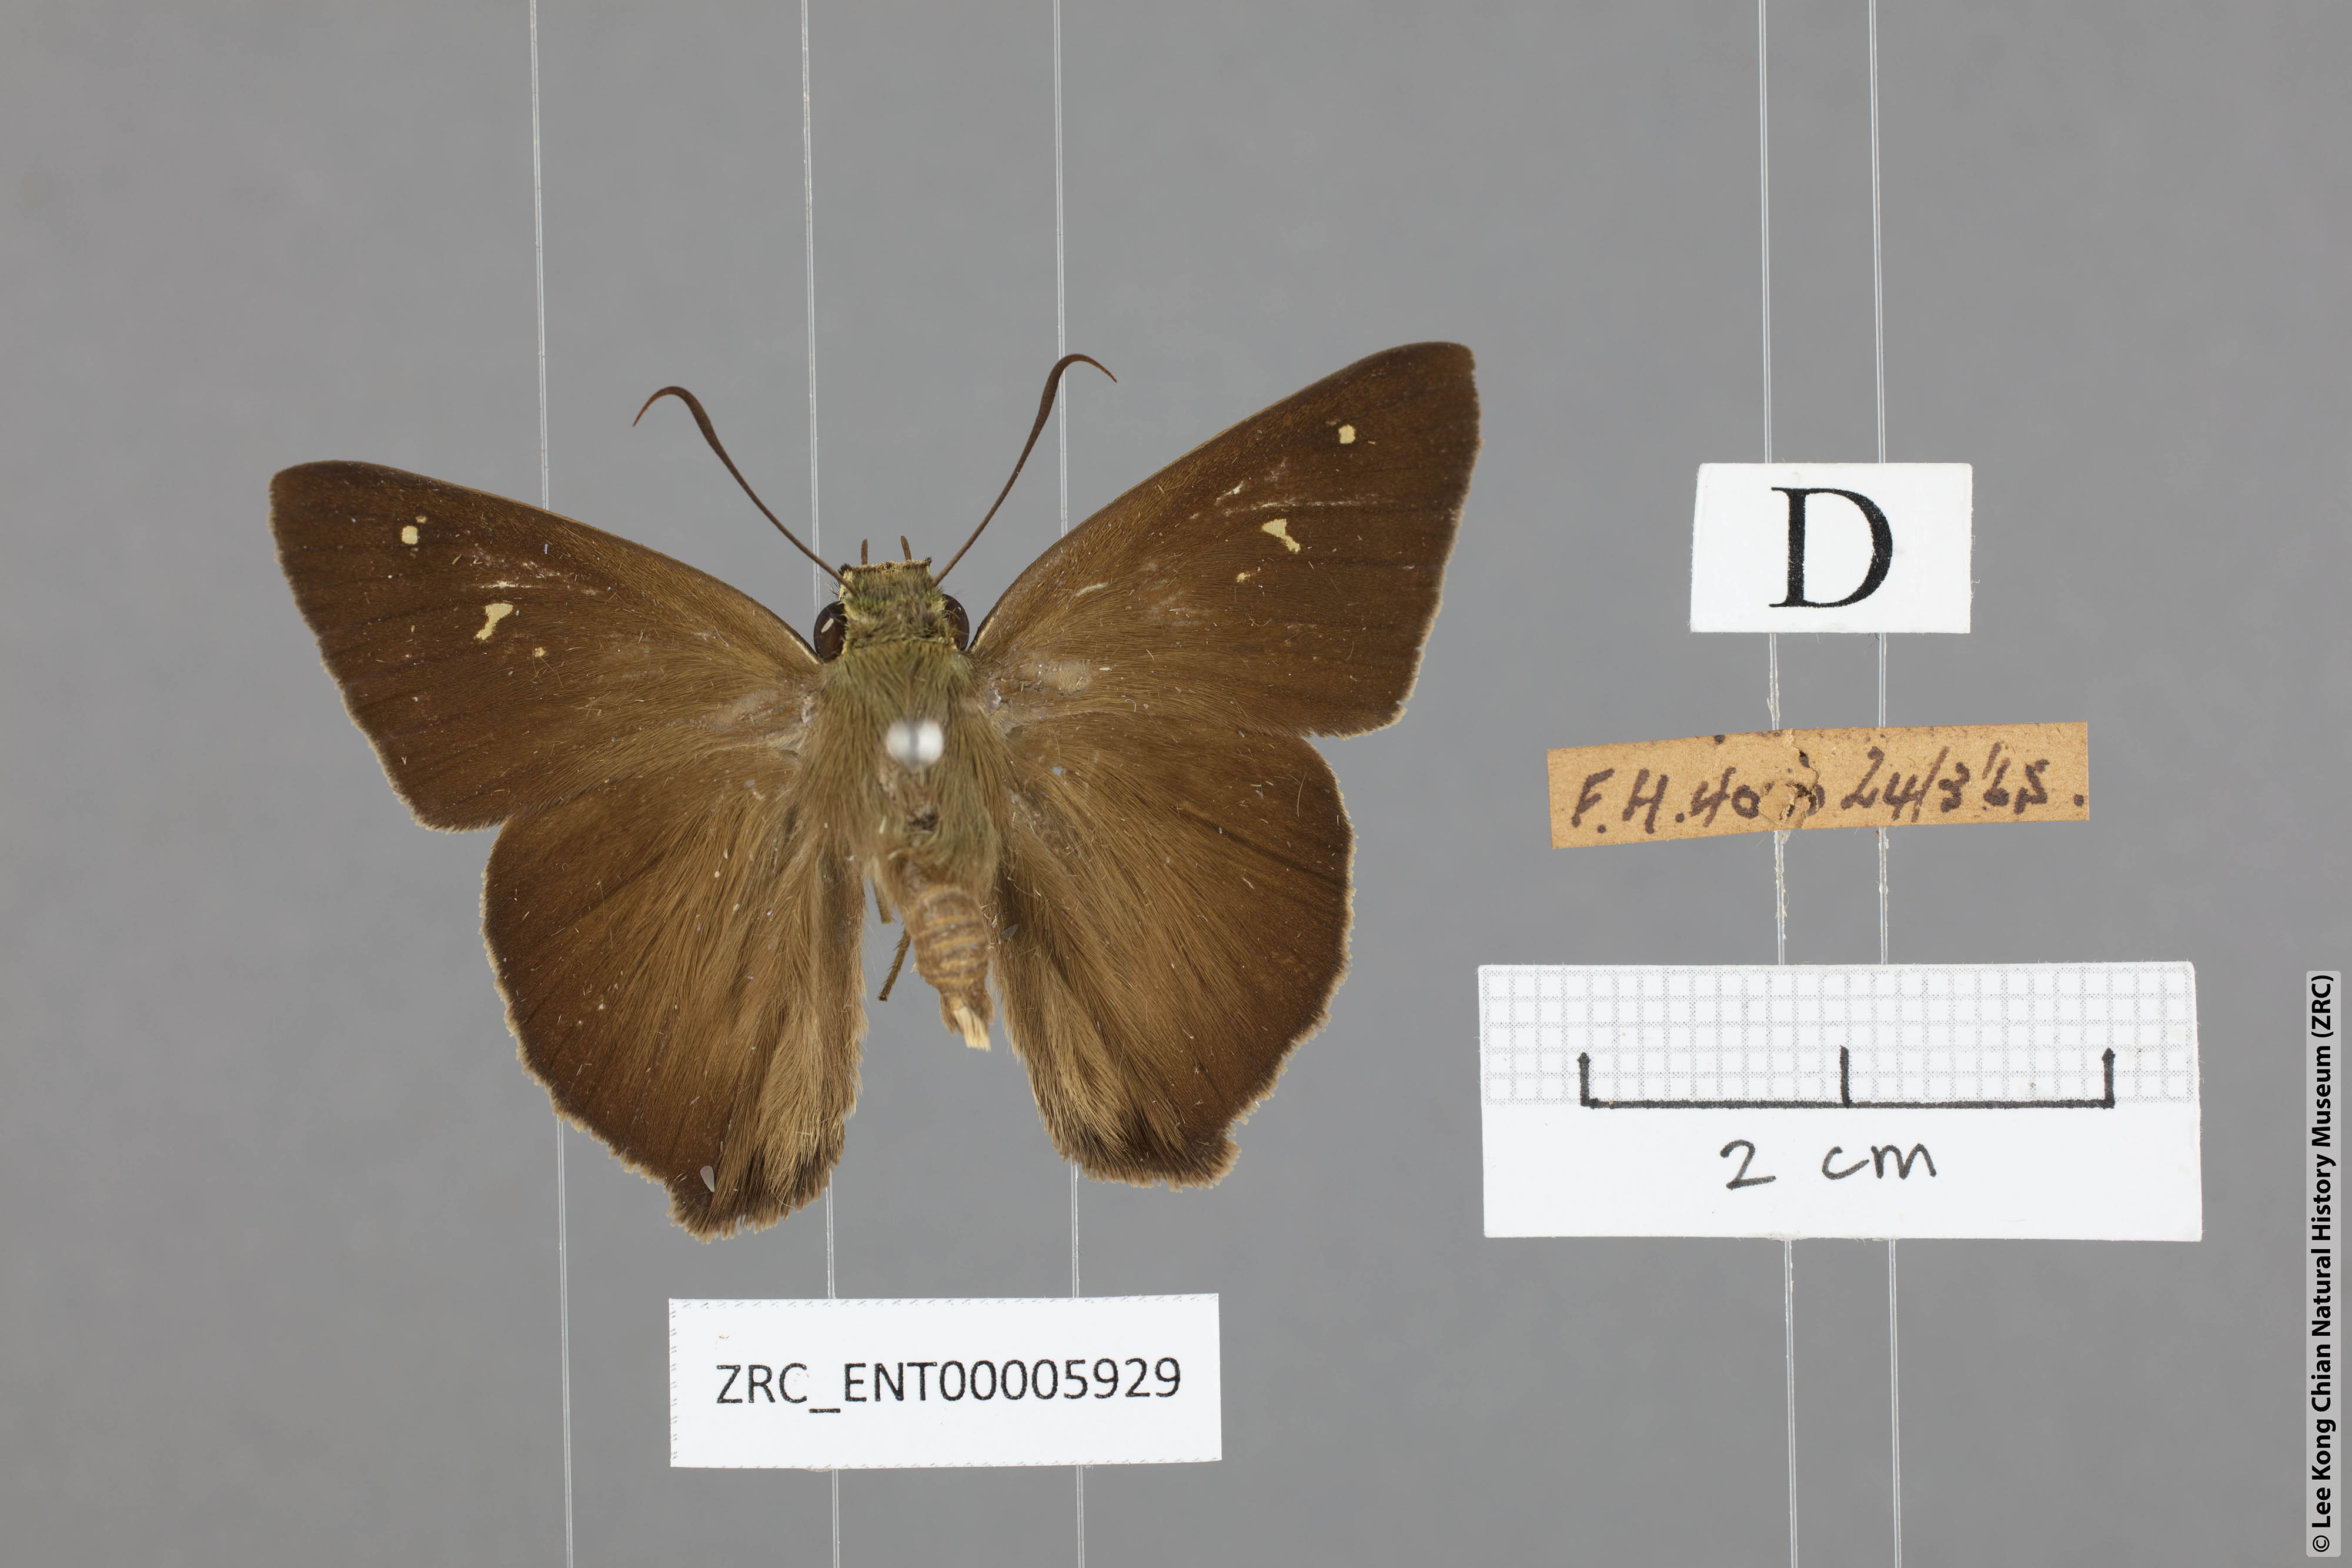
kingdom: Animalia
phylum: Arthropoda
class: Insecta
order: Lepidoptera
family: Hesperiidae
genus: Hasora
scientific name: Hasora vitta
